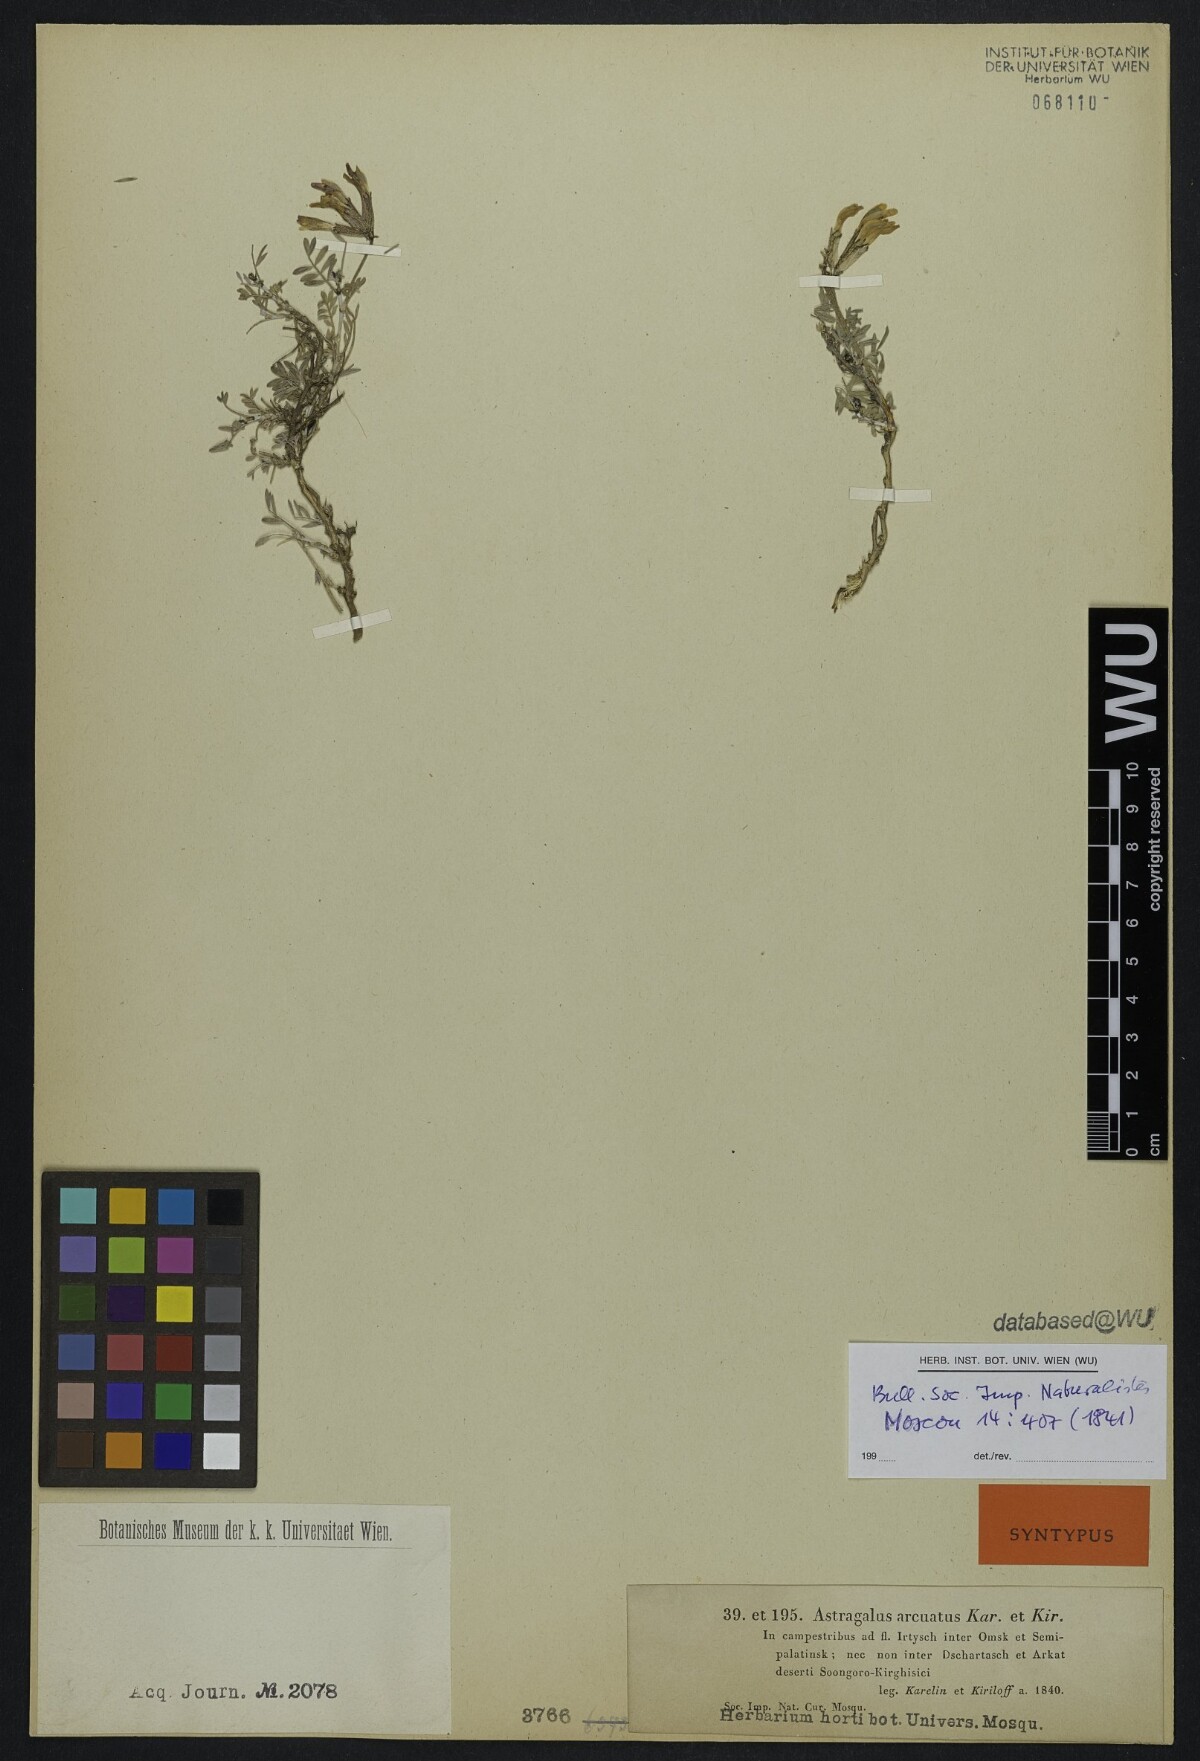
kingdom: Plantae
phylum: Tracheophyta
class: Magnoliopsida
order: Fabales
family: Fabaceae
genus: Astragalus
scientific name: Astragalus arcuatus
